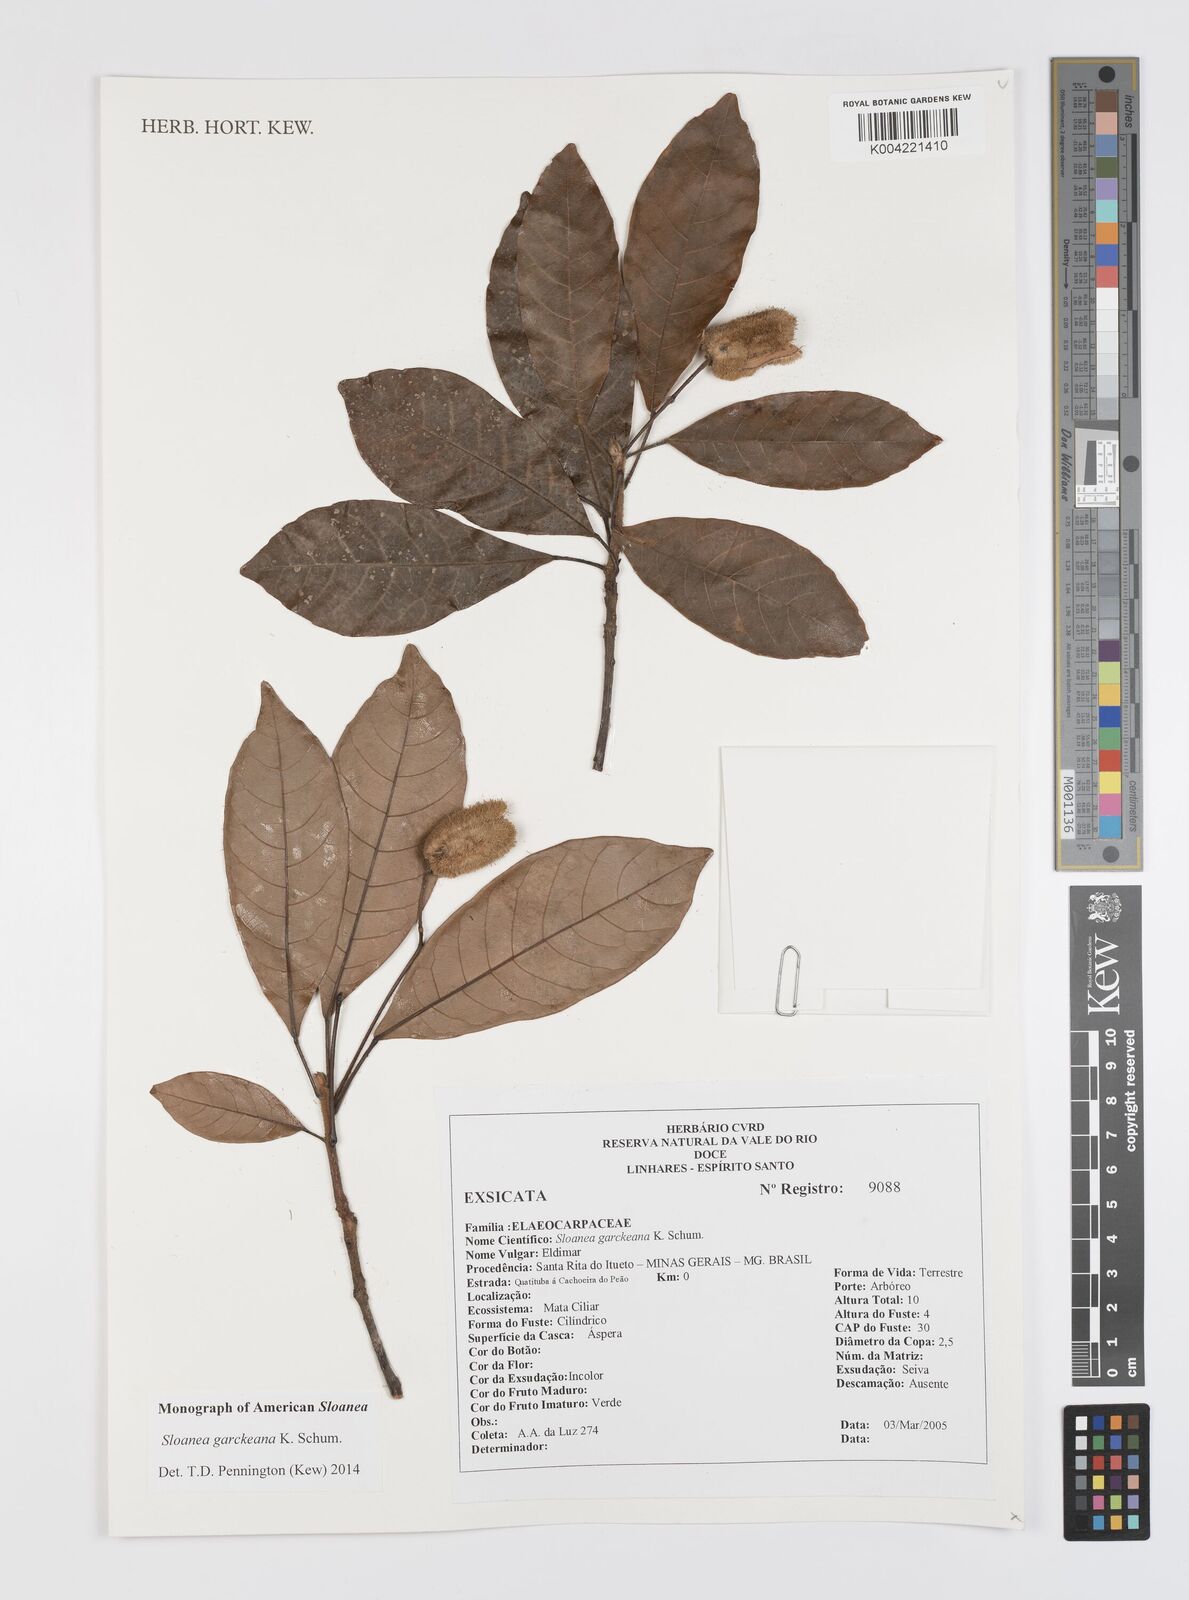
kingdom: Plantae
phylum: Tracheophyta
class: Magnoliopsida
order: Oxalidales
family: Elaeocarpaceae
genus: Sloanea
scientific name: Sloanea garckeana
